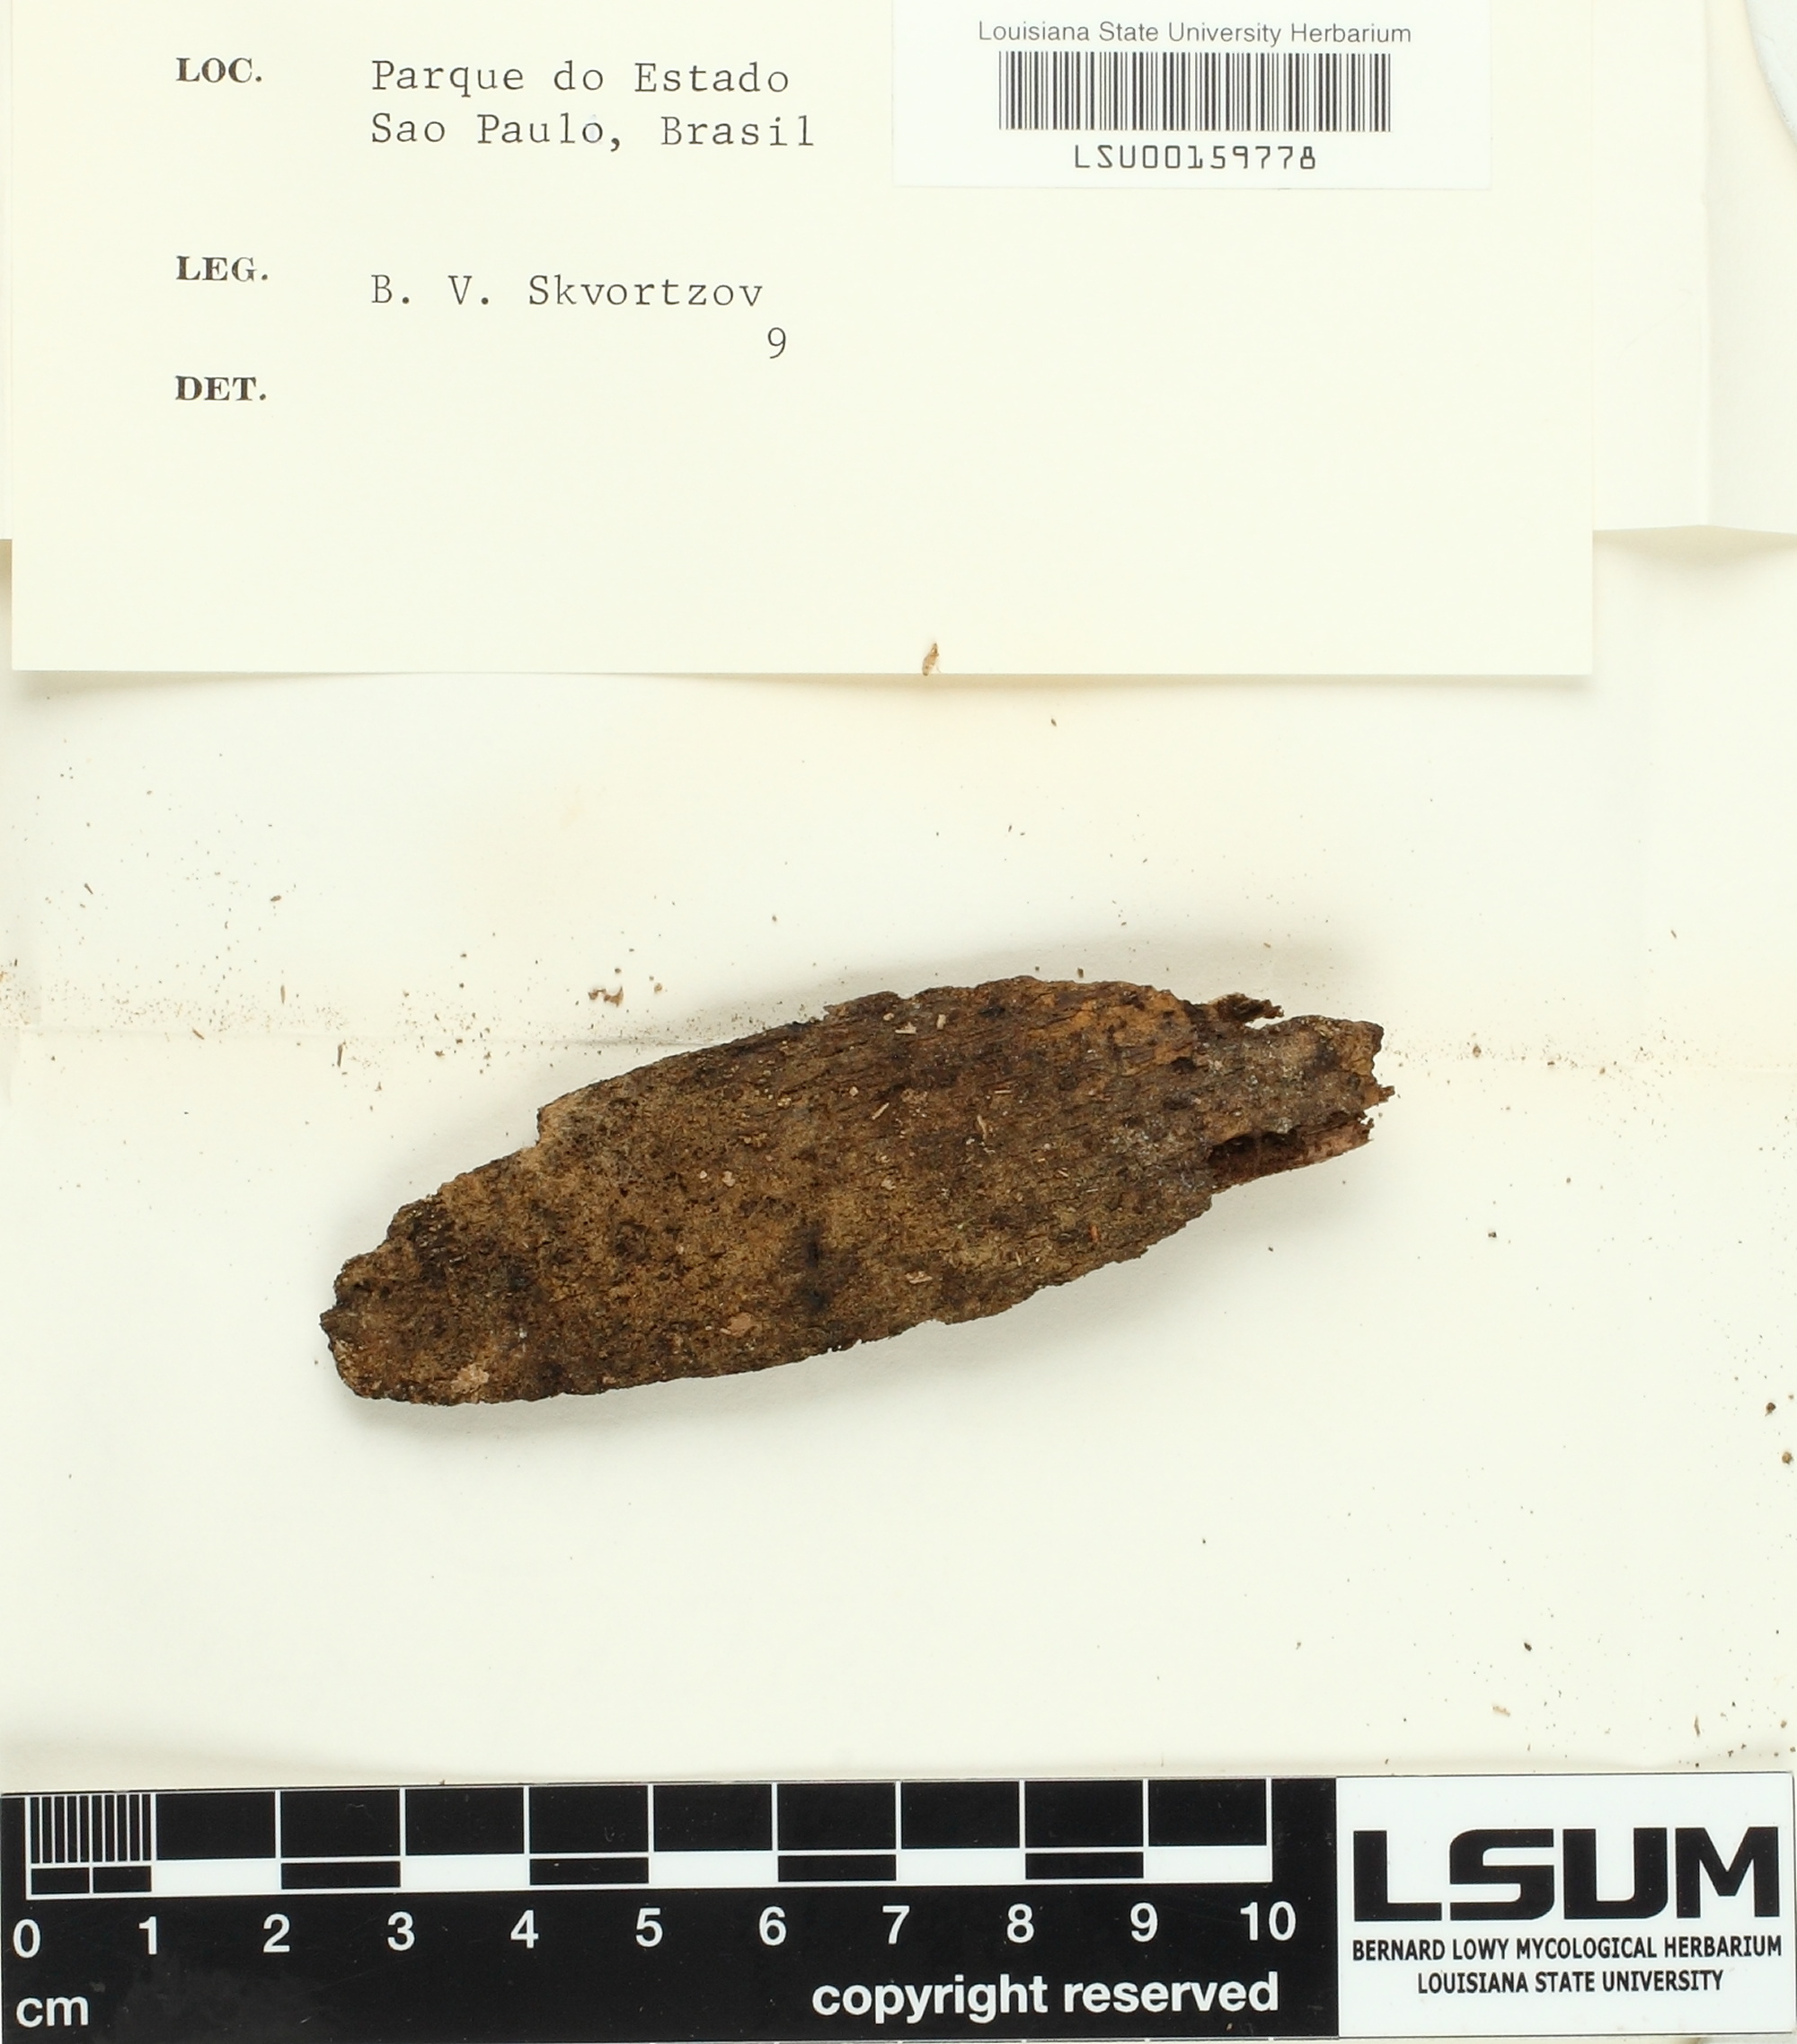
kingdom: Fungi
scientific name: Fungi
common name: Fungi
